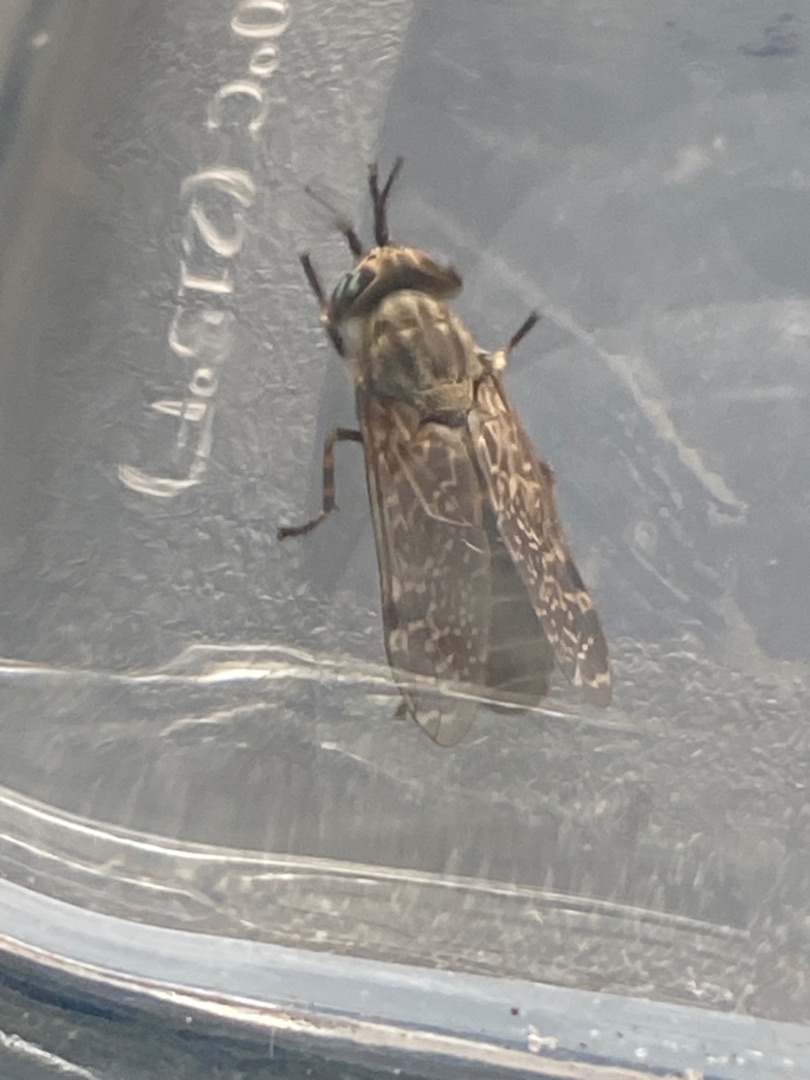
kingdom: Animalia
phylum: Arthropoda
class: Insecta
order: Diptera
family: Tabanidae
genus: Haematopota
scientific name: Haematopota pluvialis
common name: Regnklæg
